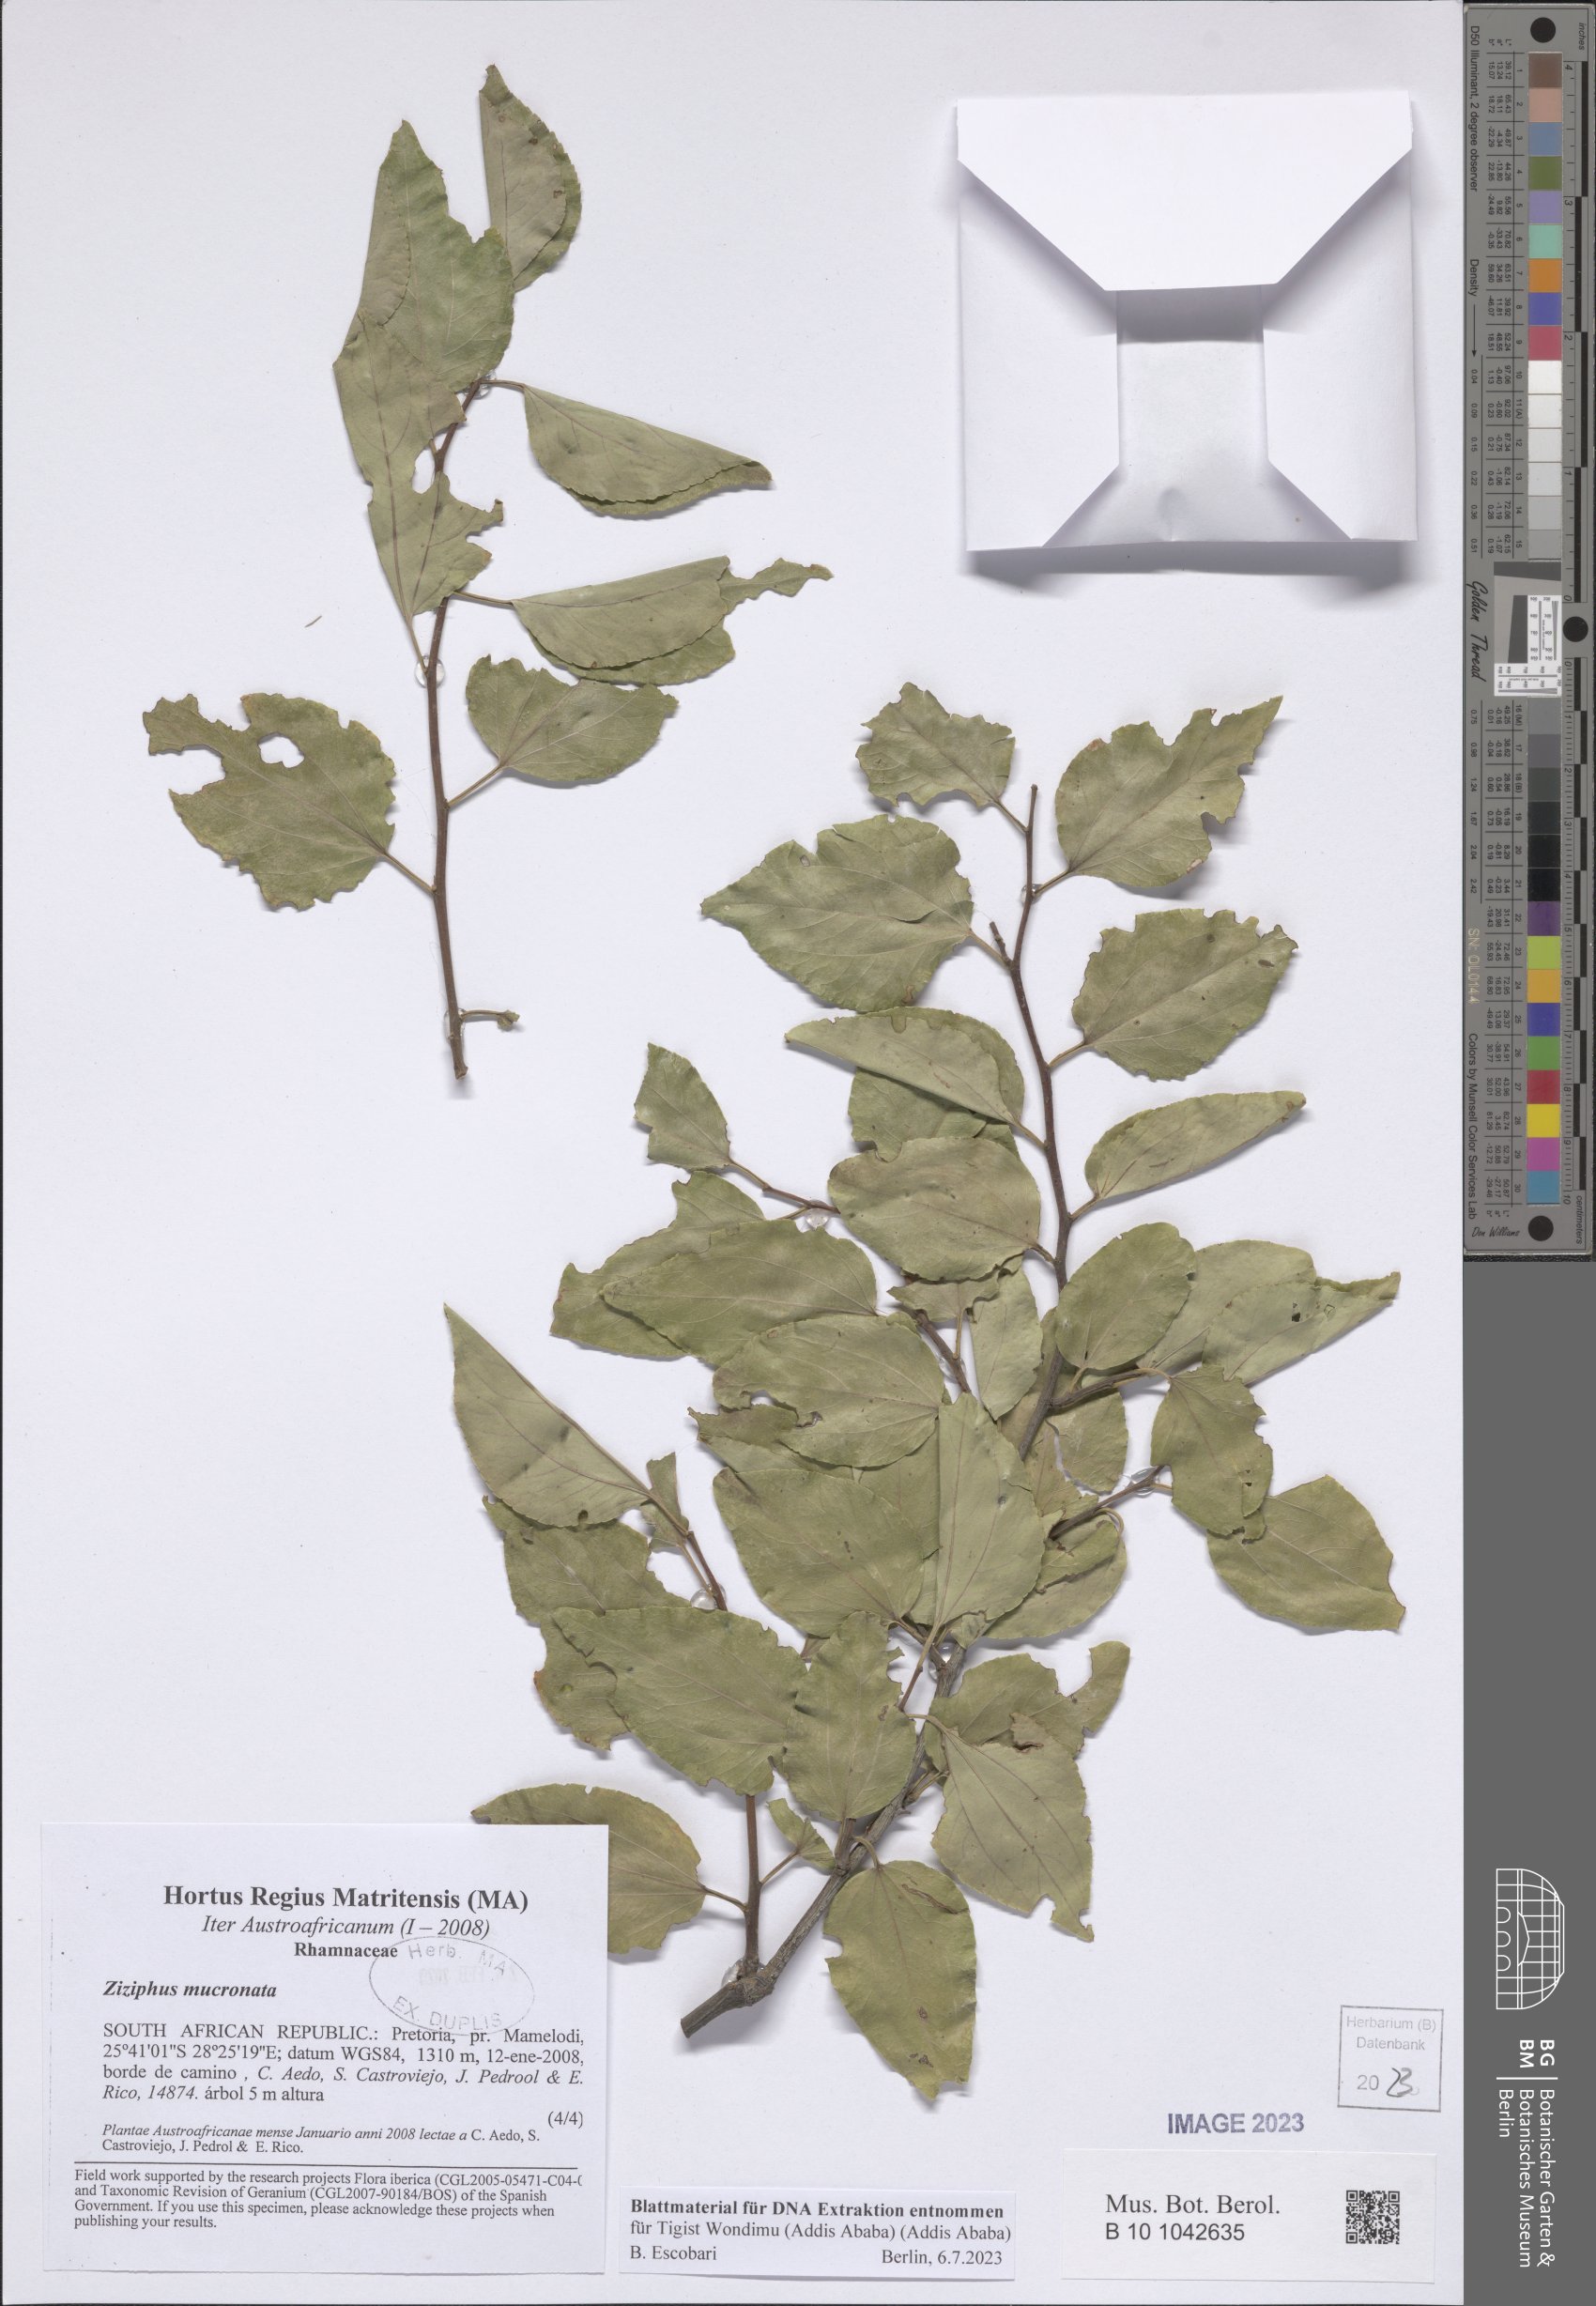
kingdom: Plantae
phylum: Tracheophyta
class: Magnoliopsida
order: Rosales
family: Rhamnaceae
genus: Ziziphus
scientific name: Ziziphus mucronata
